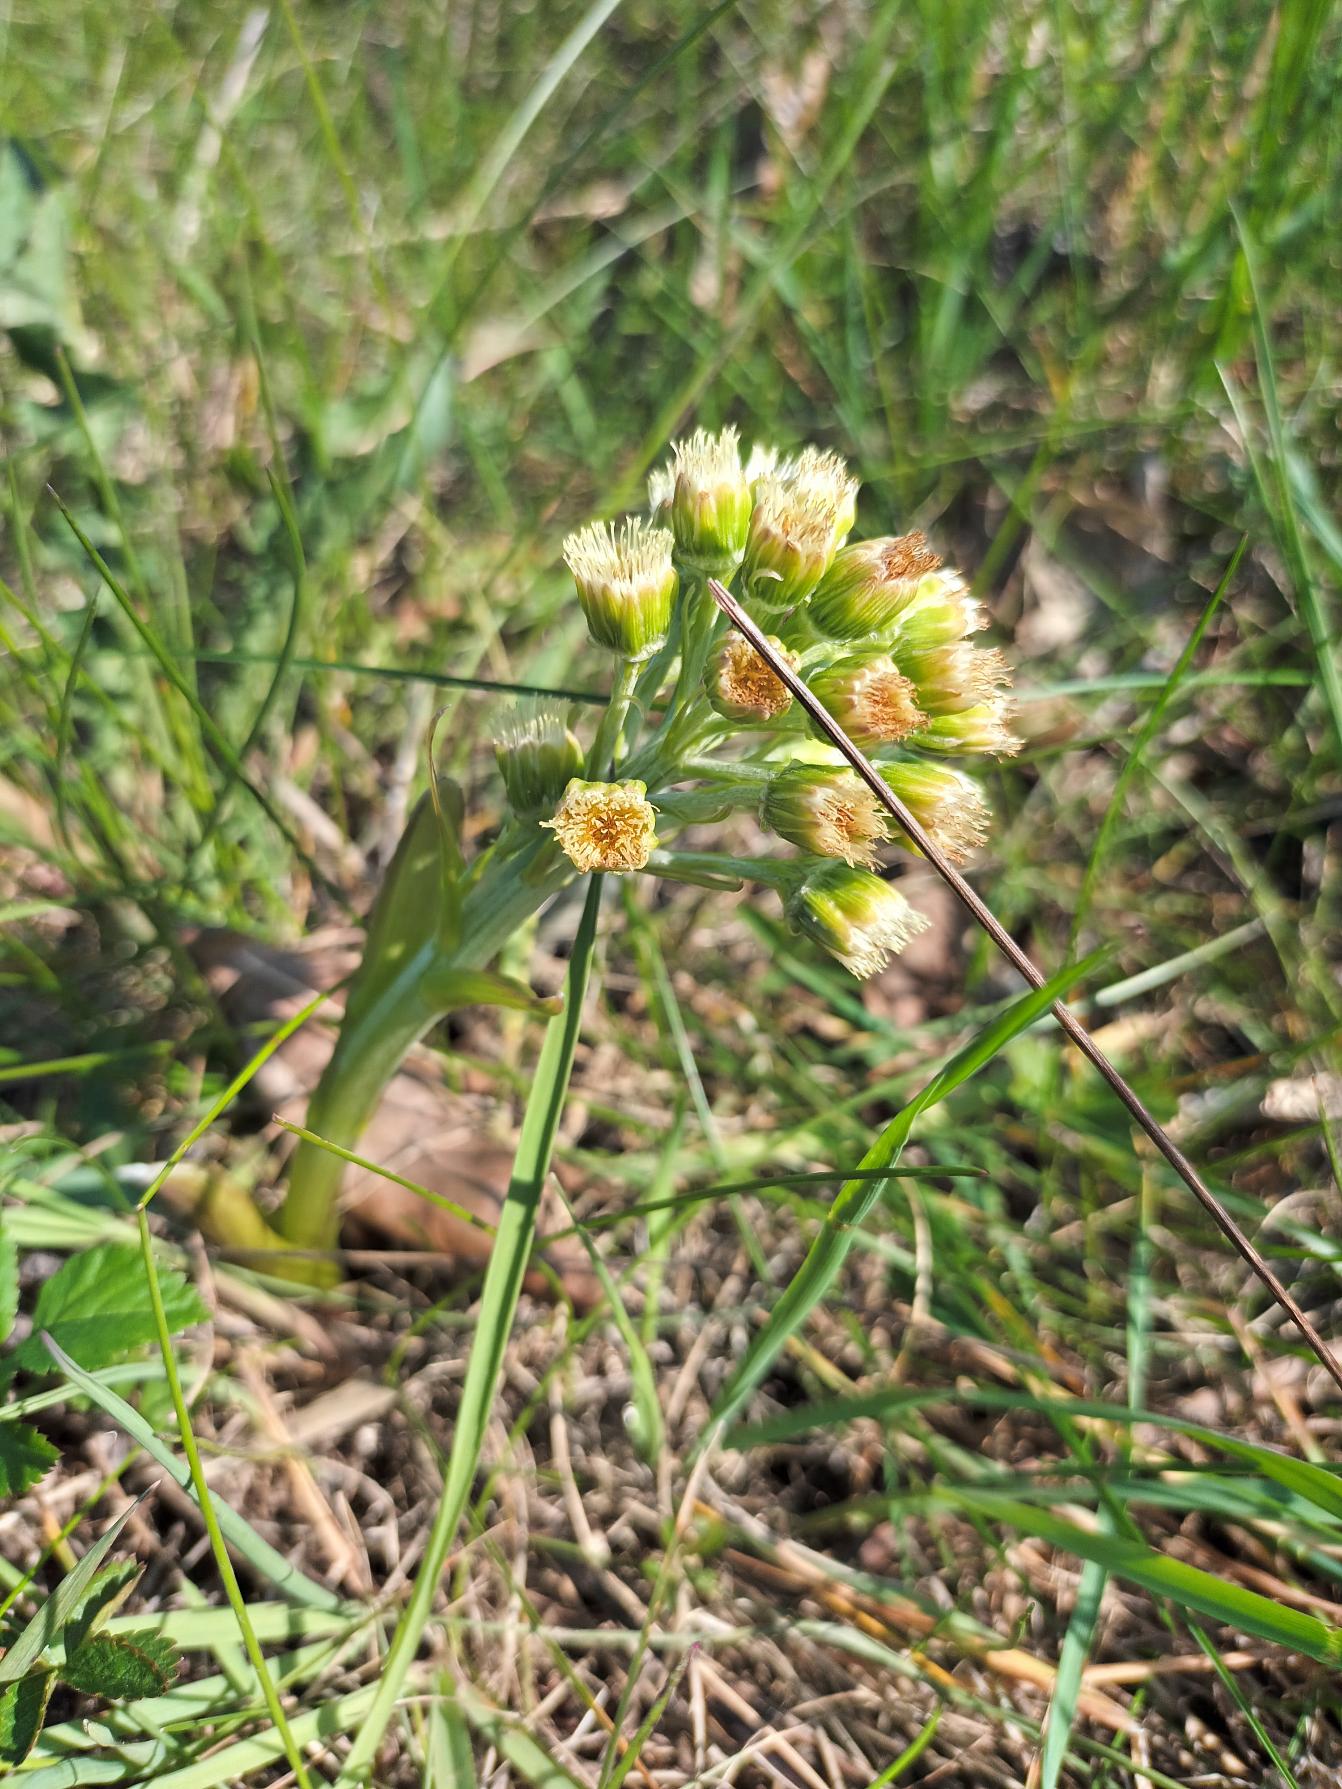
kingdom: Plantae
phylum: Tracheophyta
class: Magnoliopsida
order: Asterales
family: Asteraceae
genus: Petasites
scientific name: Petasites spurius
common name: Filtet hestehov
